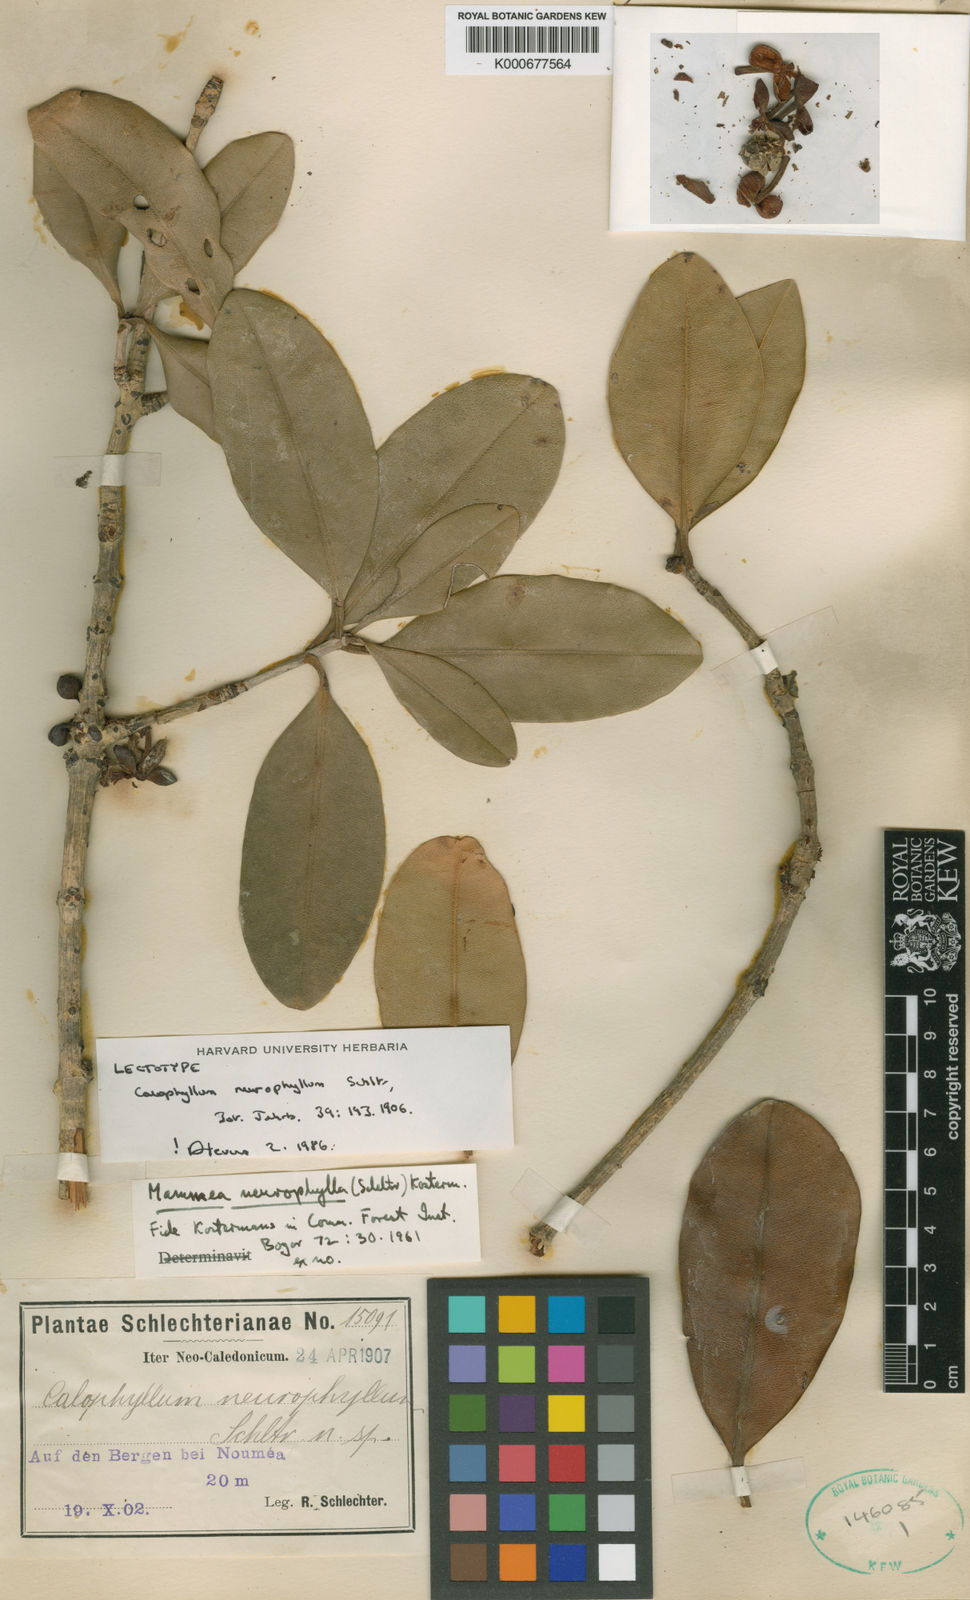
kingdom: Plantae
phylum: Tracheophyta
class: Magnoliopsida
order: Malpighiales
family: Calophyllaceae
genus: Mammea
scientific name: Mammea neurophylla
